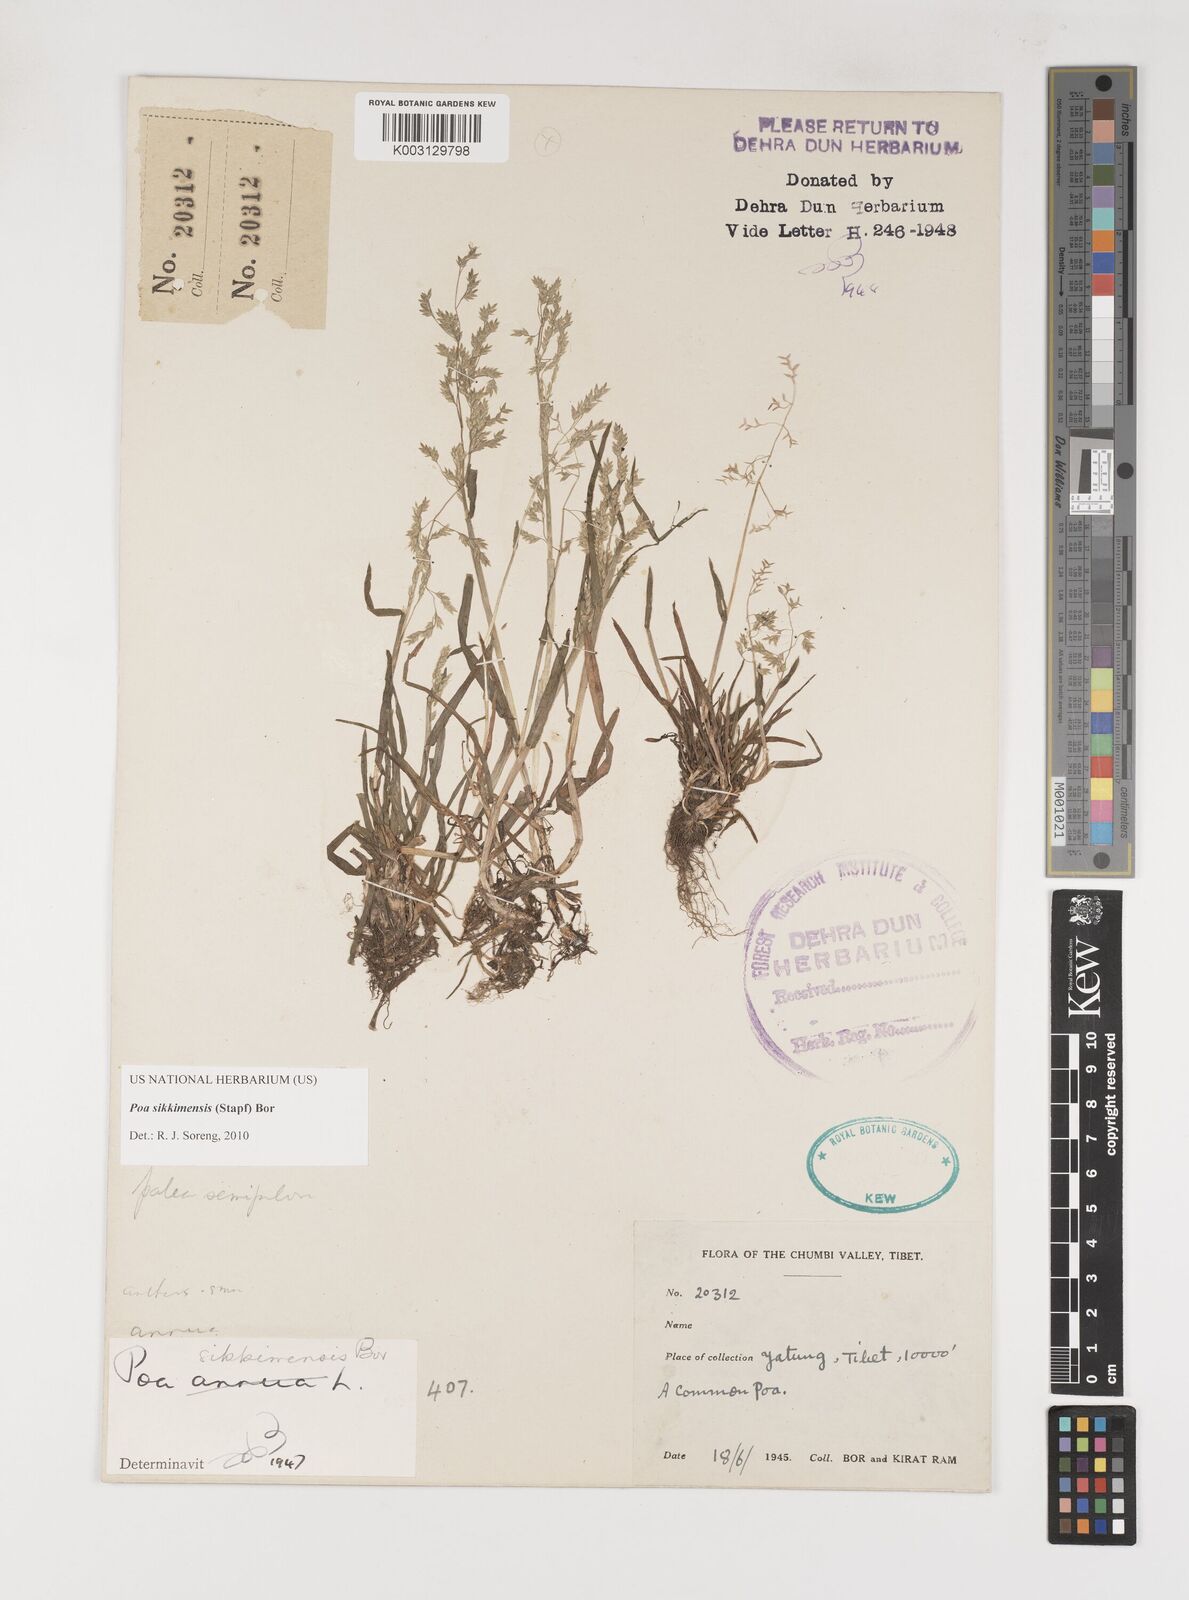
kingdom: Plantae
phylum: Tracheophyta
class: Liliopsida
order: Poales
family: Poaceae
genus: Poa
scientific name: Poa sikkimensis
